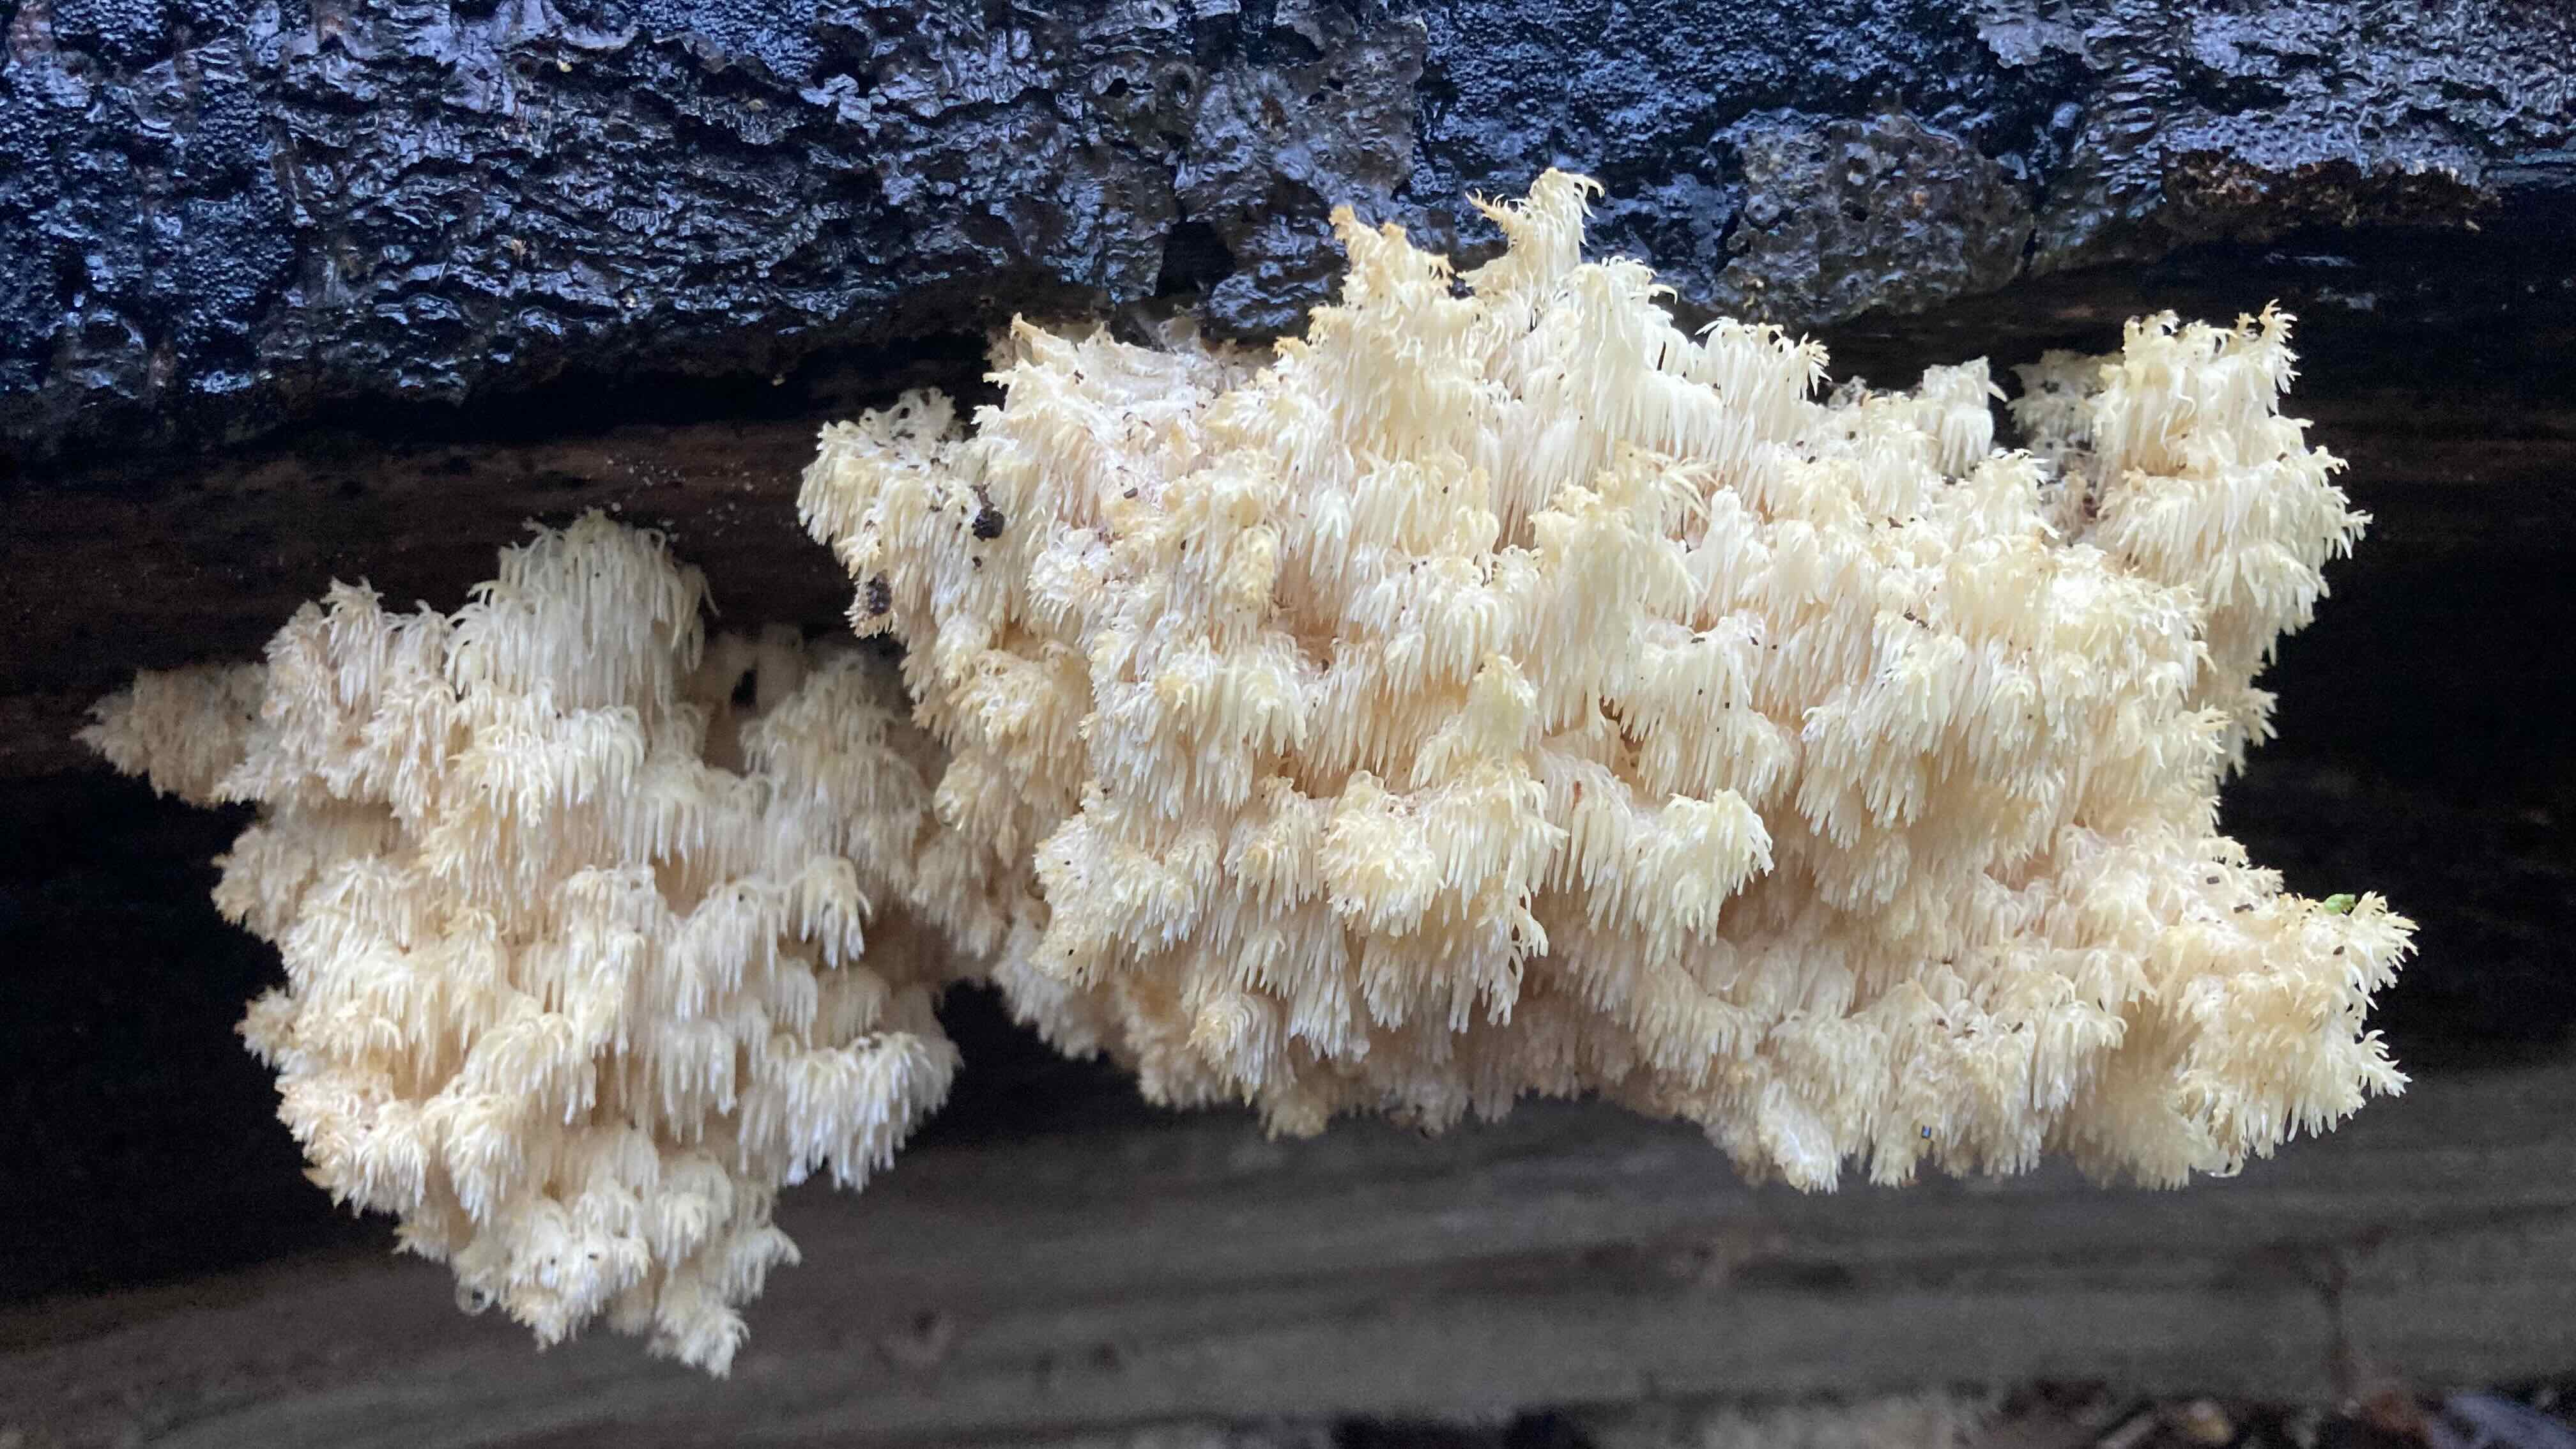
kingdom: Fungi
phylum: Basidiomycota
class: Agaricomycetes
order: Russulales
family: Hericiaceae
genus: Hericium
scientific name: Hericium coralloides
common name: koralpigsvamp
